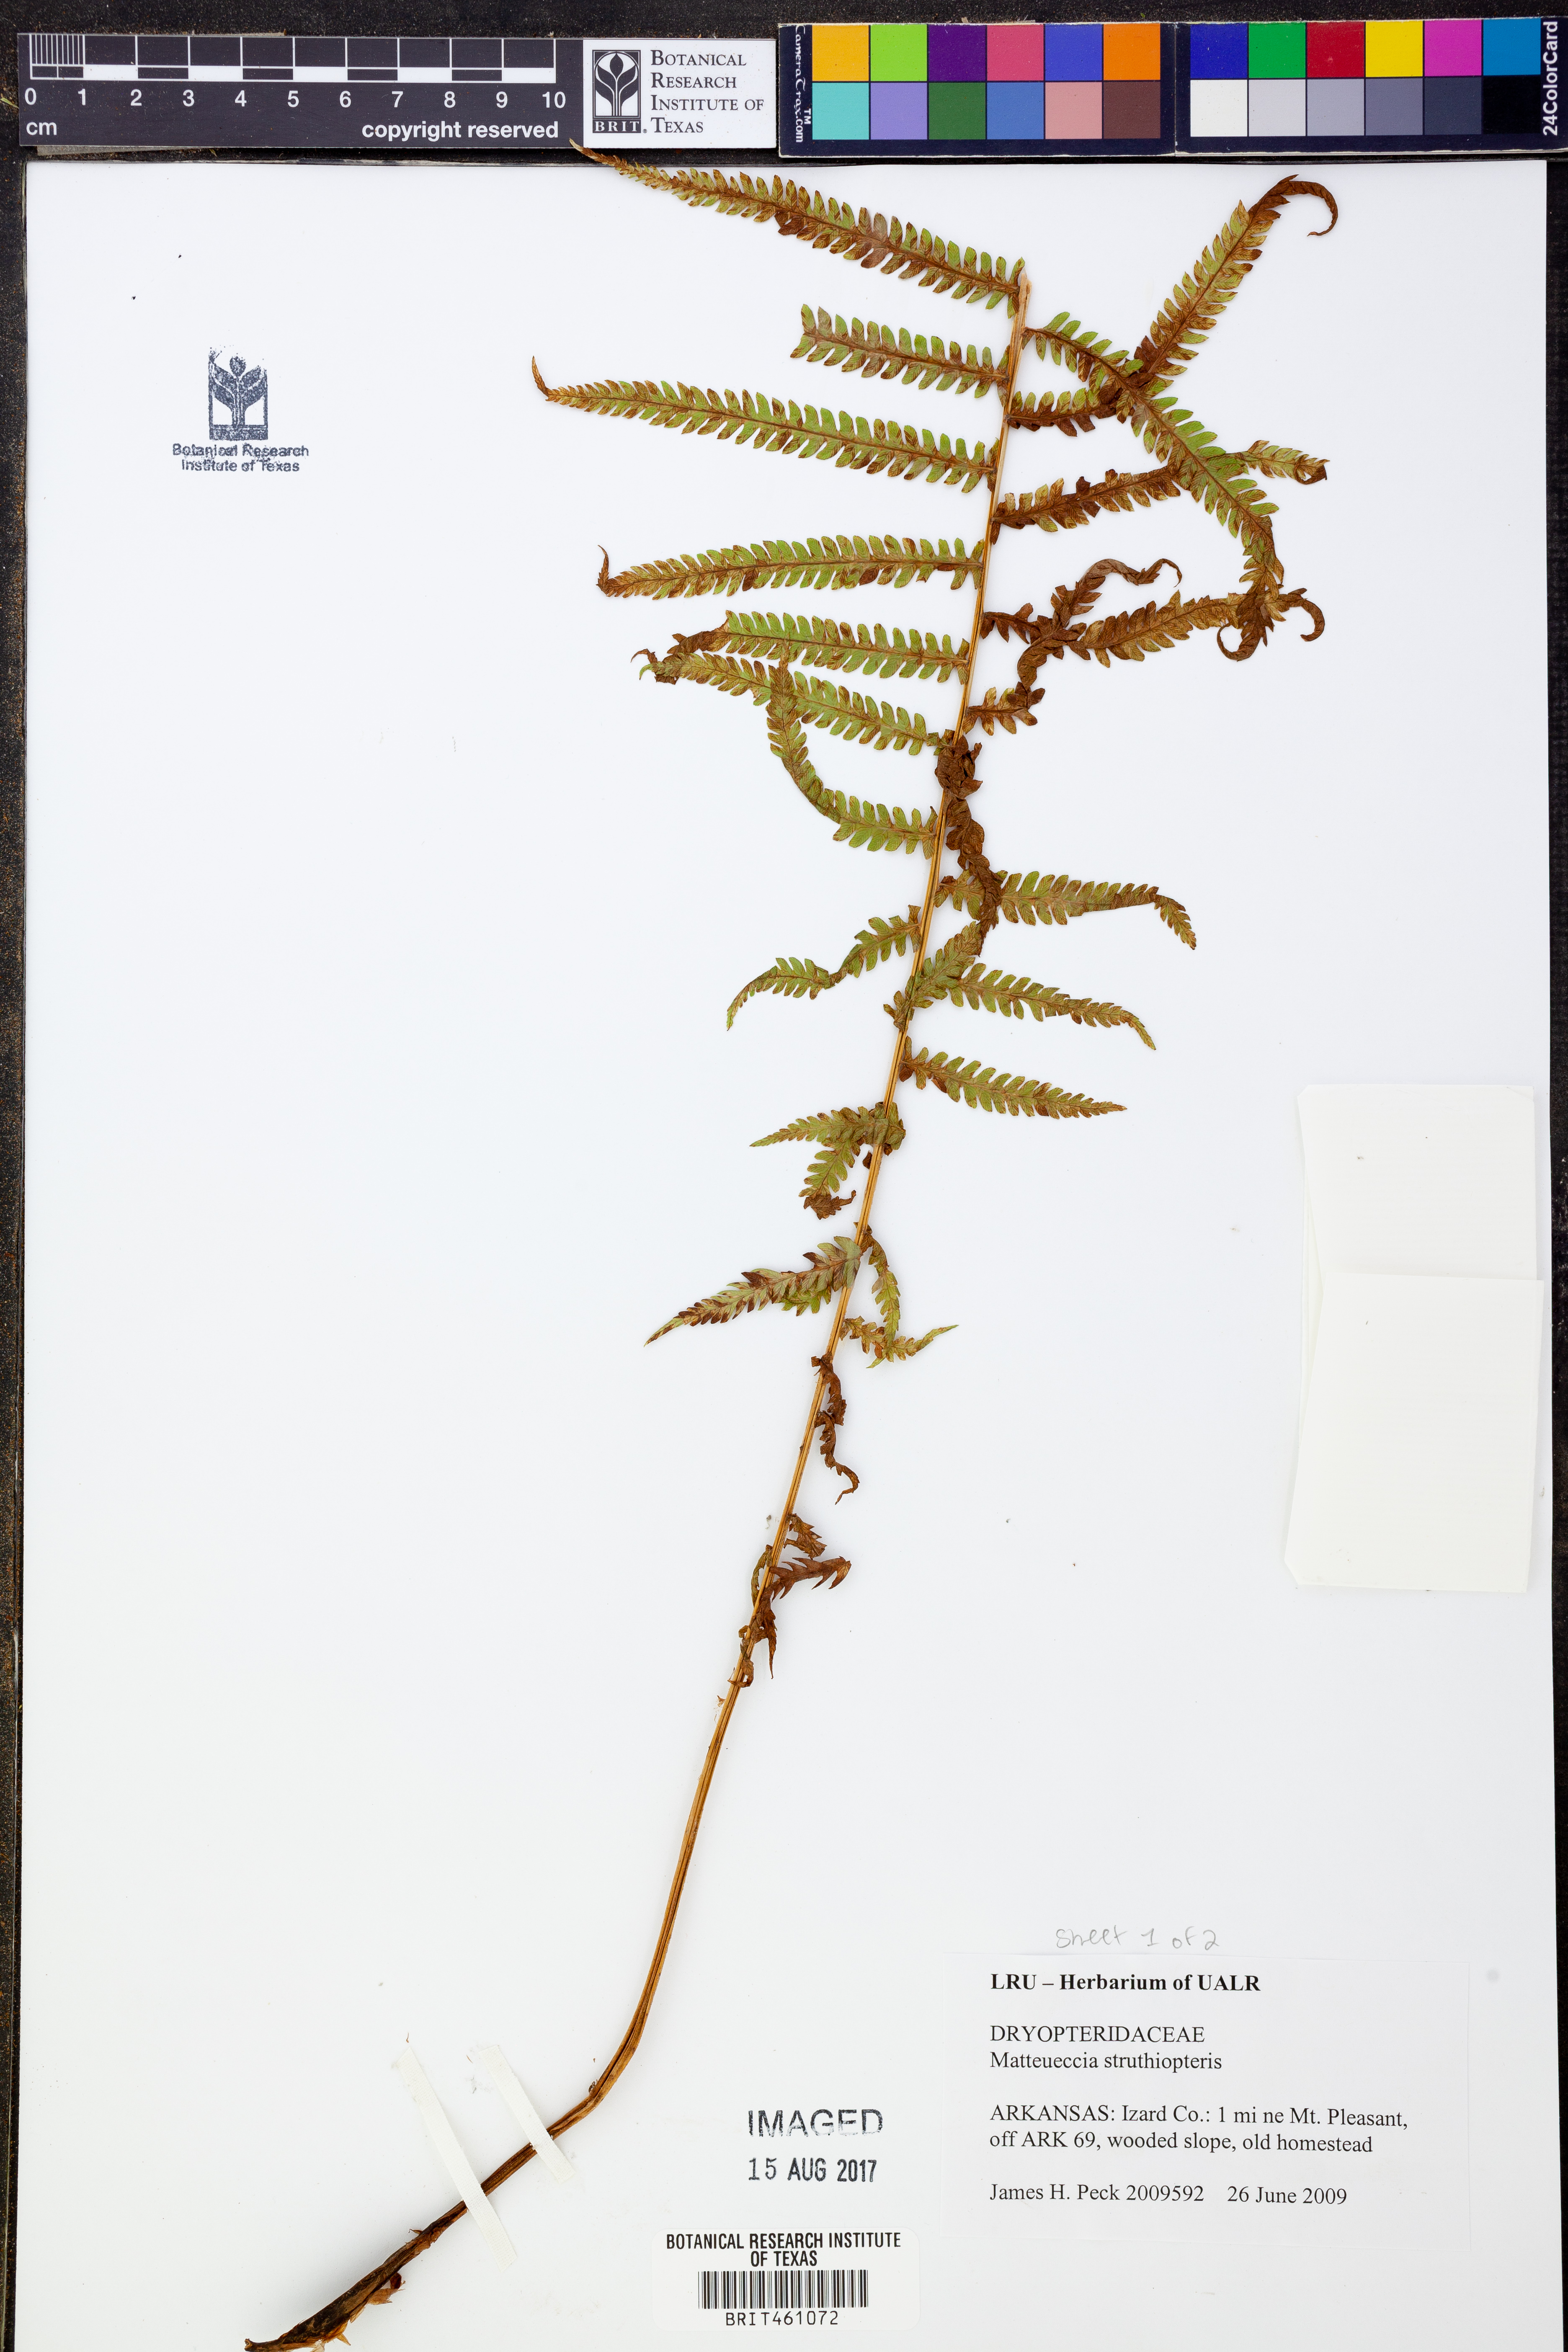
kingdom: Plantae
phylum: Tracheophyta
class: Polypodiopsida
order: Polypodiales
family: Onocleaceae
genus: Matteuccia
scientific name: Matteuccia struthiopteris
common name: Ostrich fern
